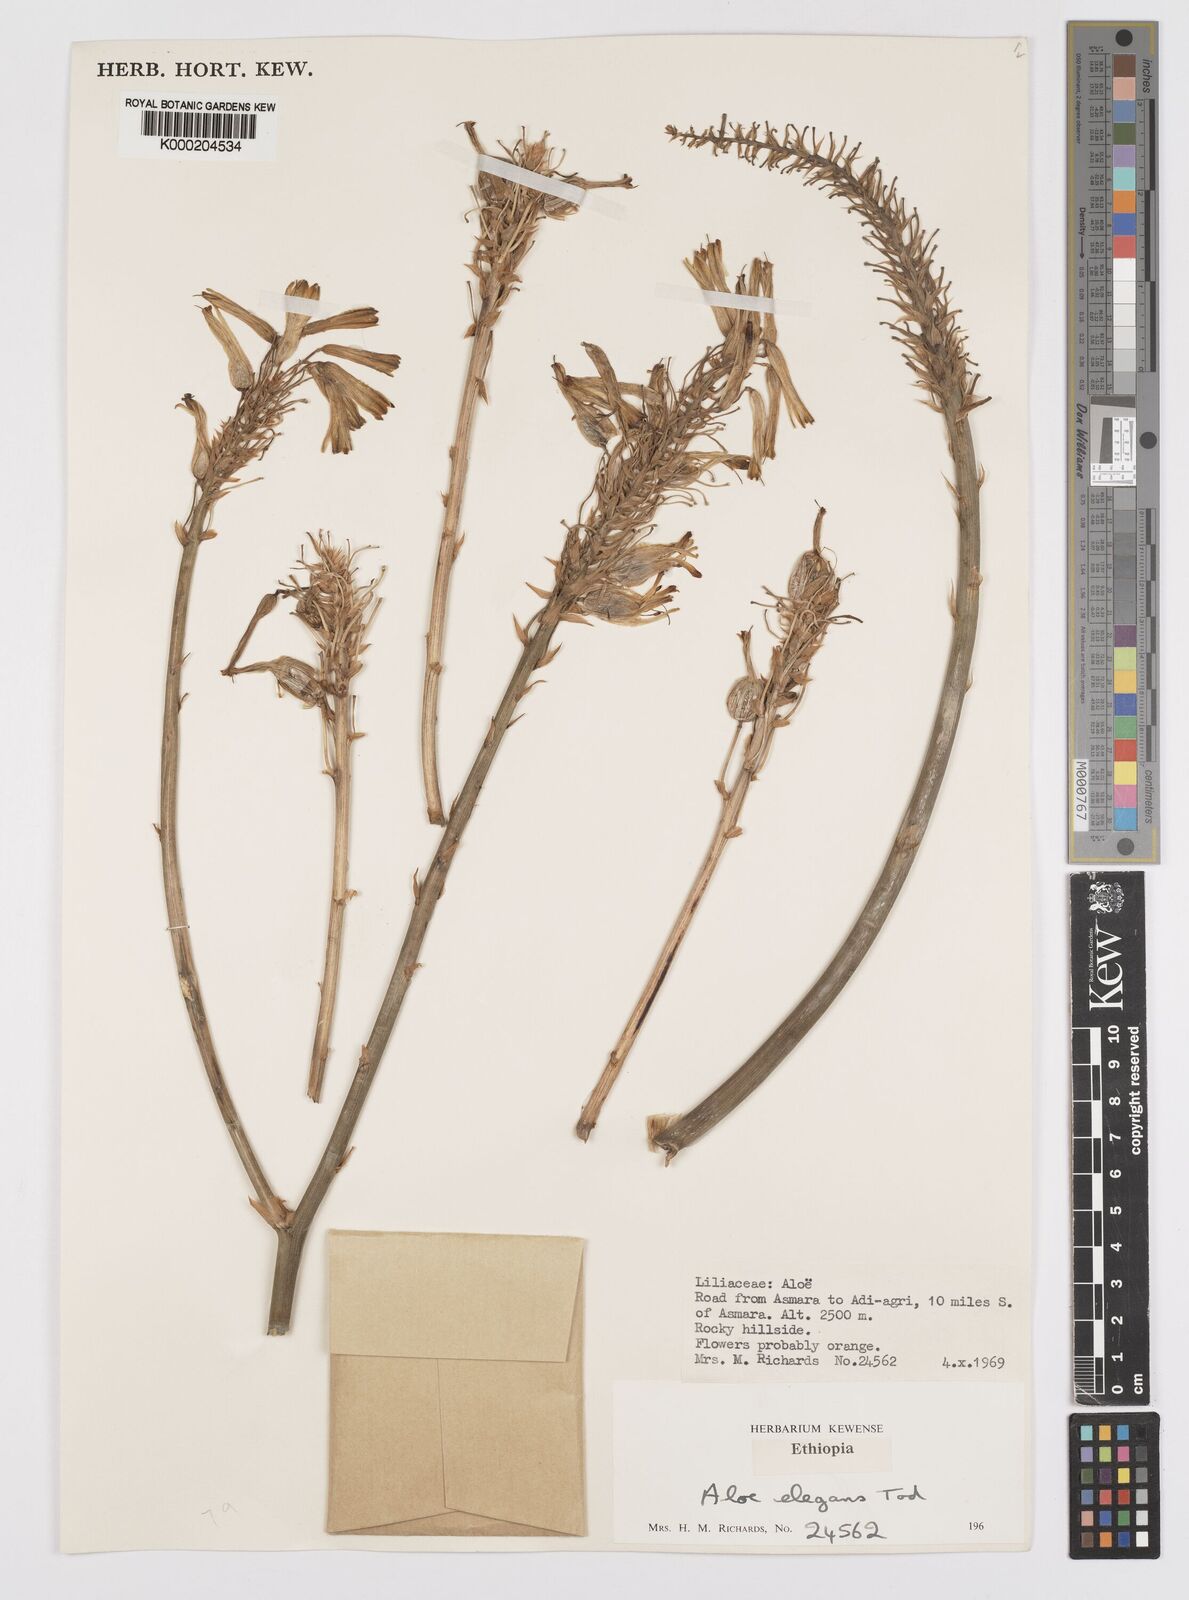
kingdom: Plantae
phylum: Tracheophyta
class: Liliopsida
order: Asparagales
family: Asphodelaceae
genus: Aloe
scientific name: Aloe elegans
